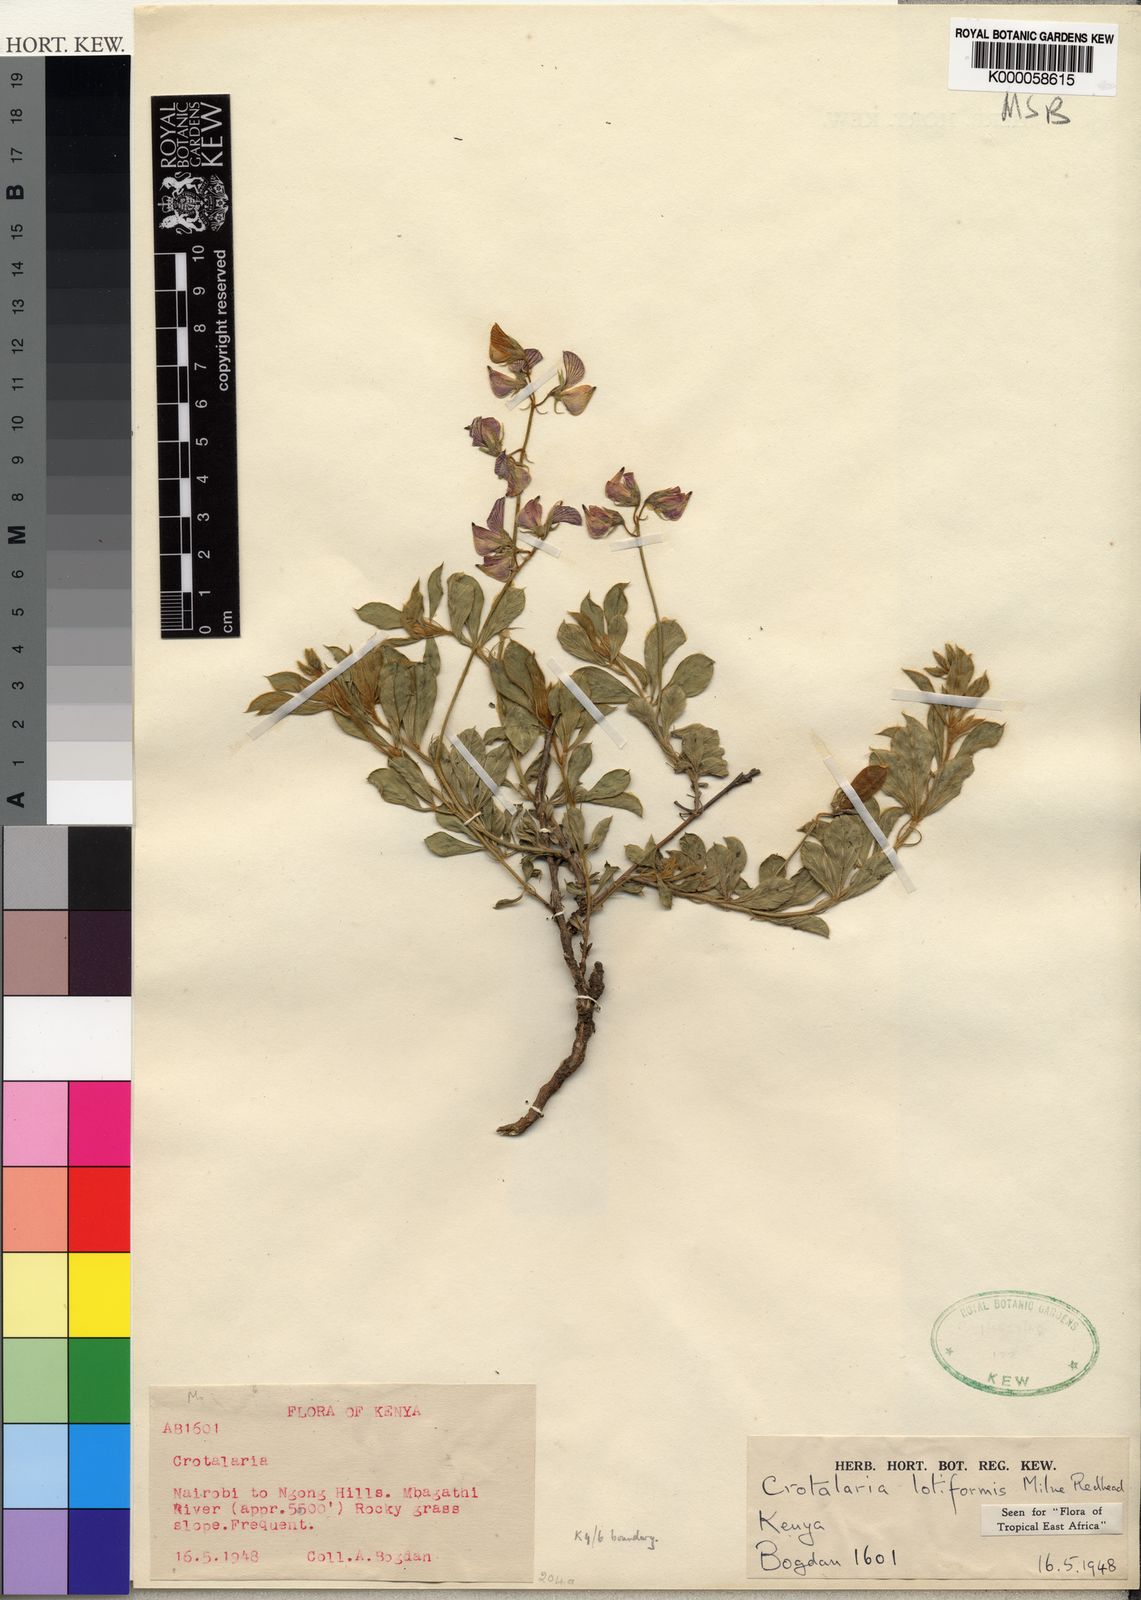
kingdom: Plantae
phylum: Tracheophyta
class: Magnoliopsida
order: Fabales
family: Fabaceae
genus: Crotalaria
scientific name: Crotalaria lotiformis
